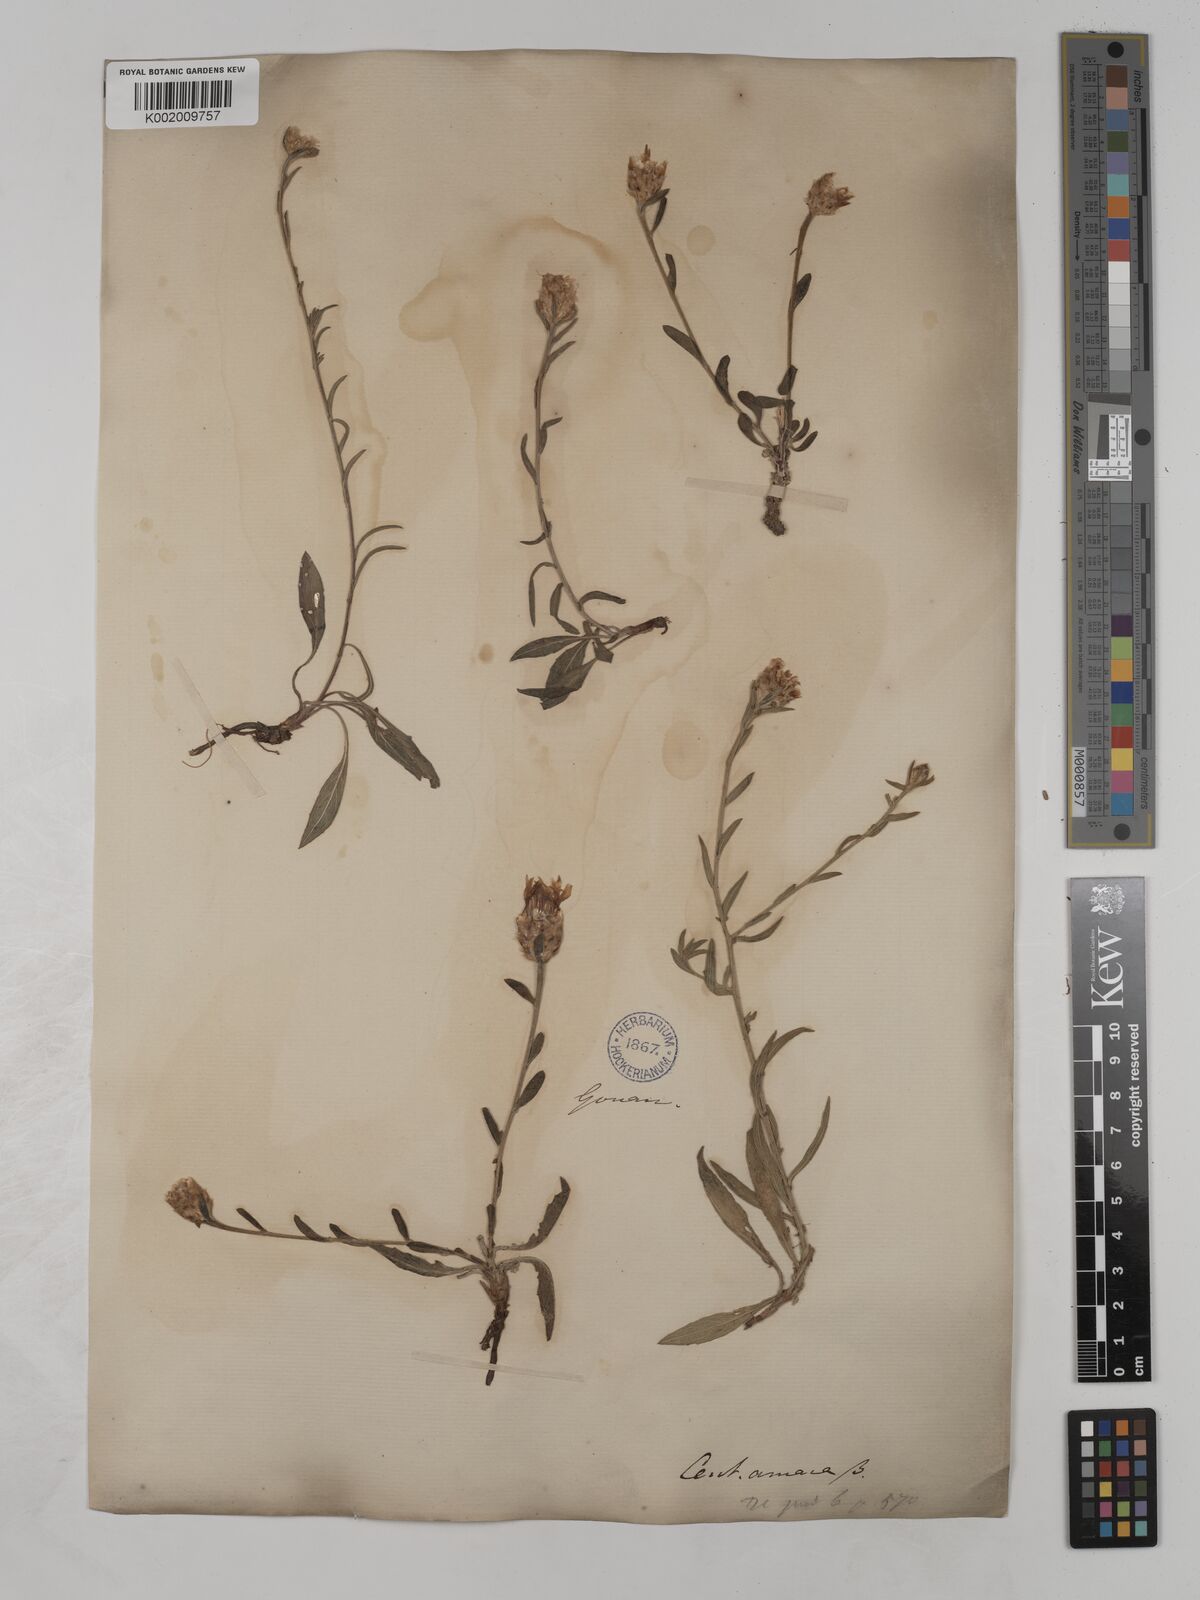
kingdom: Plantae
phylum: Tracheophyta
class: Magnoliopsida
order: Asterales
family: Asteraceae
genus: Centaurea
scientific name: Centaurea timbalii
